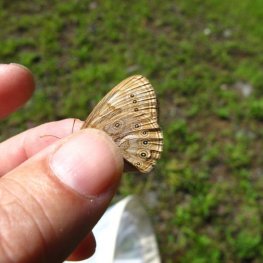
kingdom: Animalia
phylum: Arthropoda
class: Insecta
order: Lepidoptera
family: Nymphalidae
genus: Lethe
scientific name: Lethe eurydice
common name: Eyed Brown
